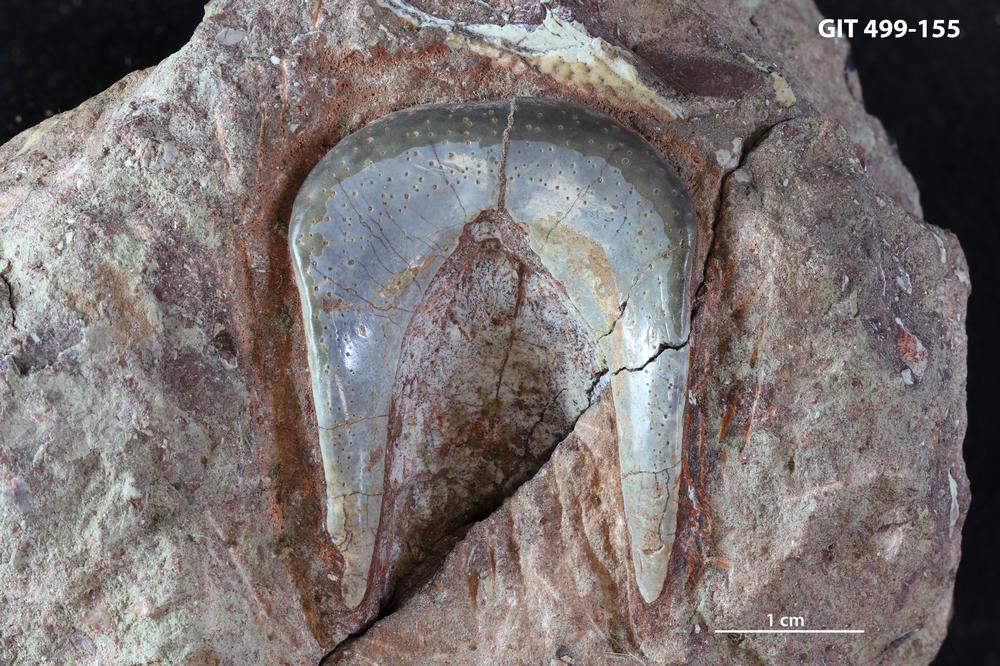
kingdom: Animalia
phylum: Chordata
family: Rhinodipteridae
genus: Rhinodipterus
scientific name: Rhinodipterus
